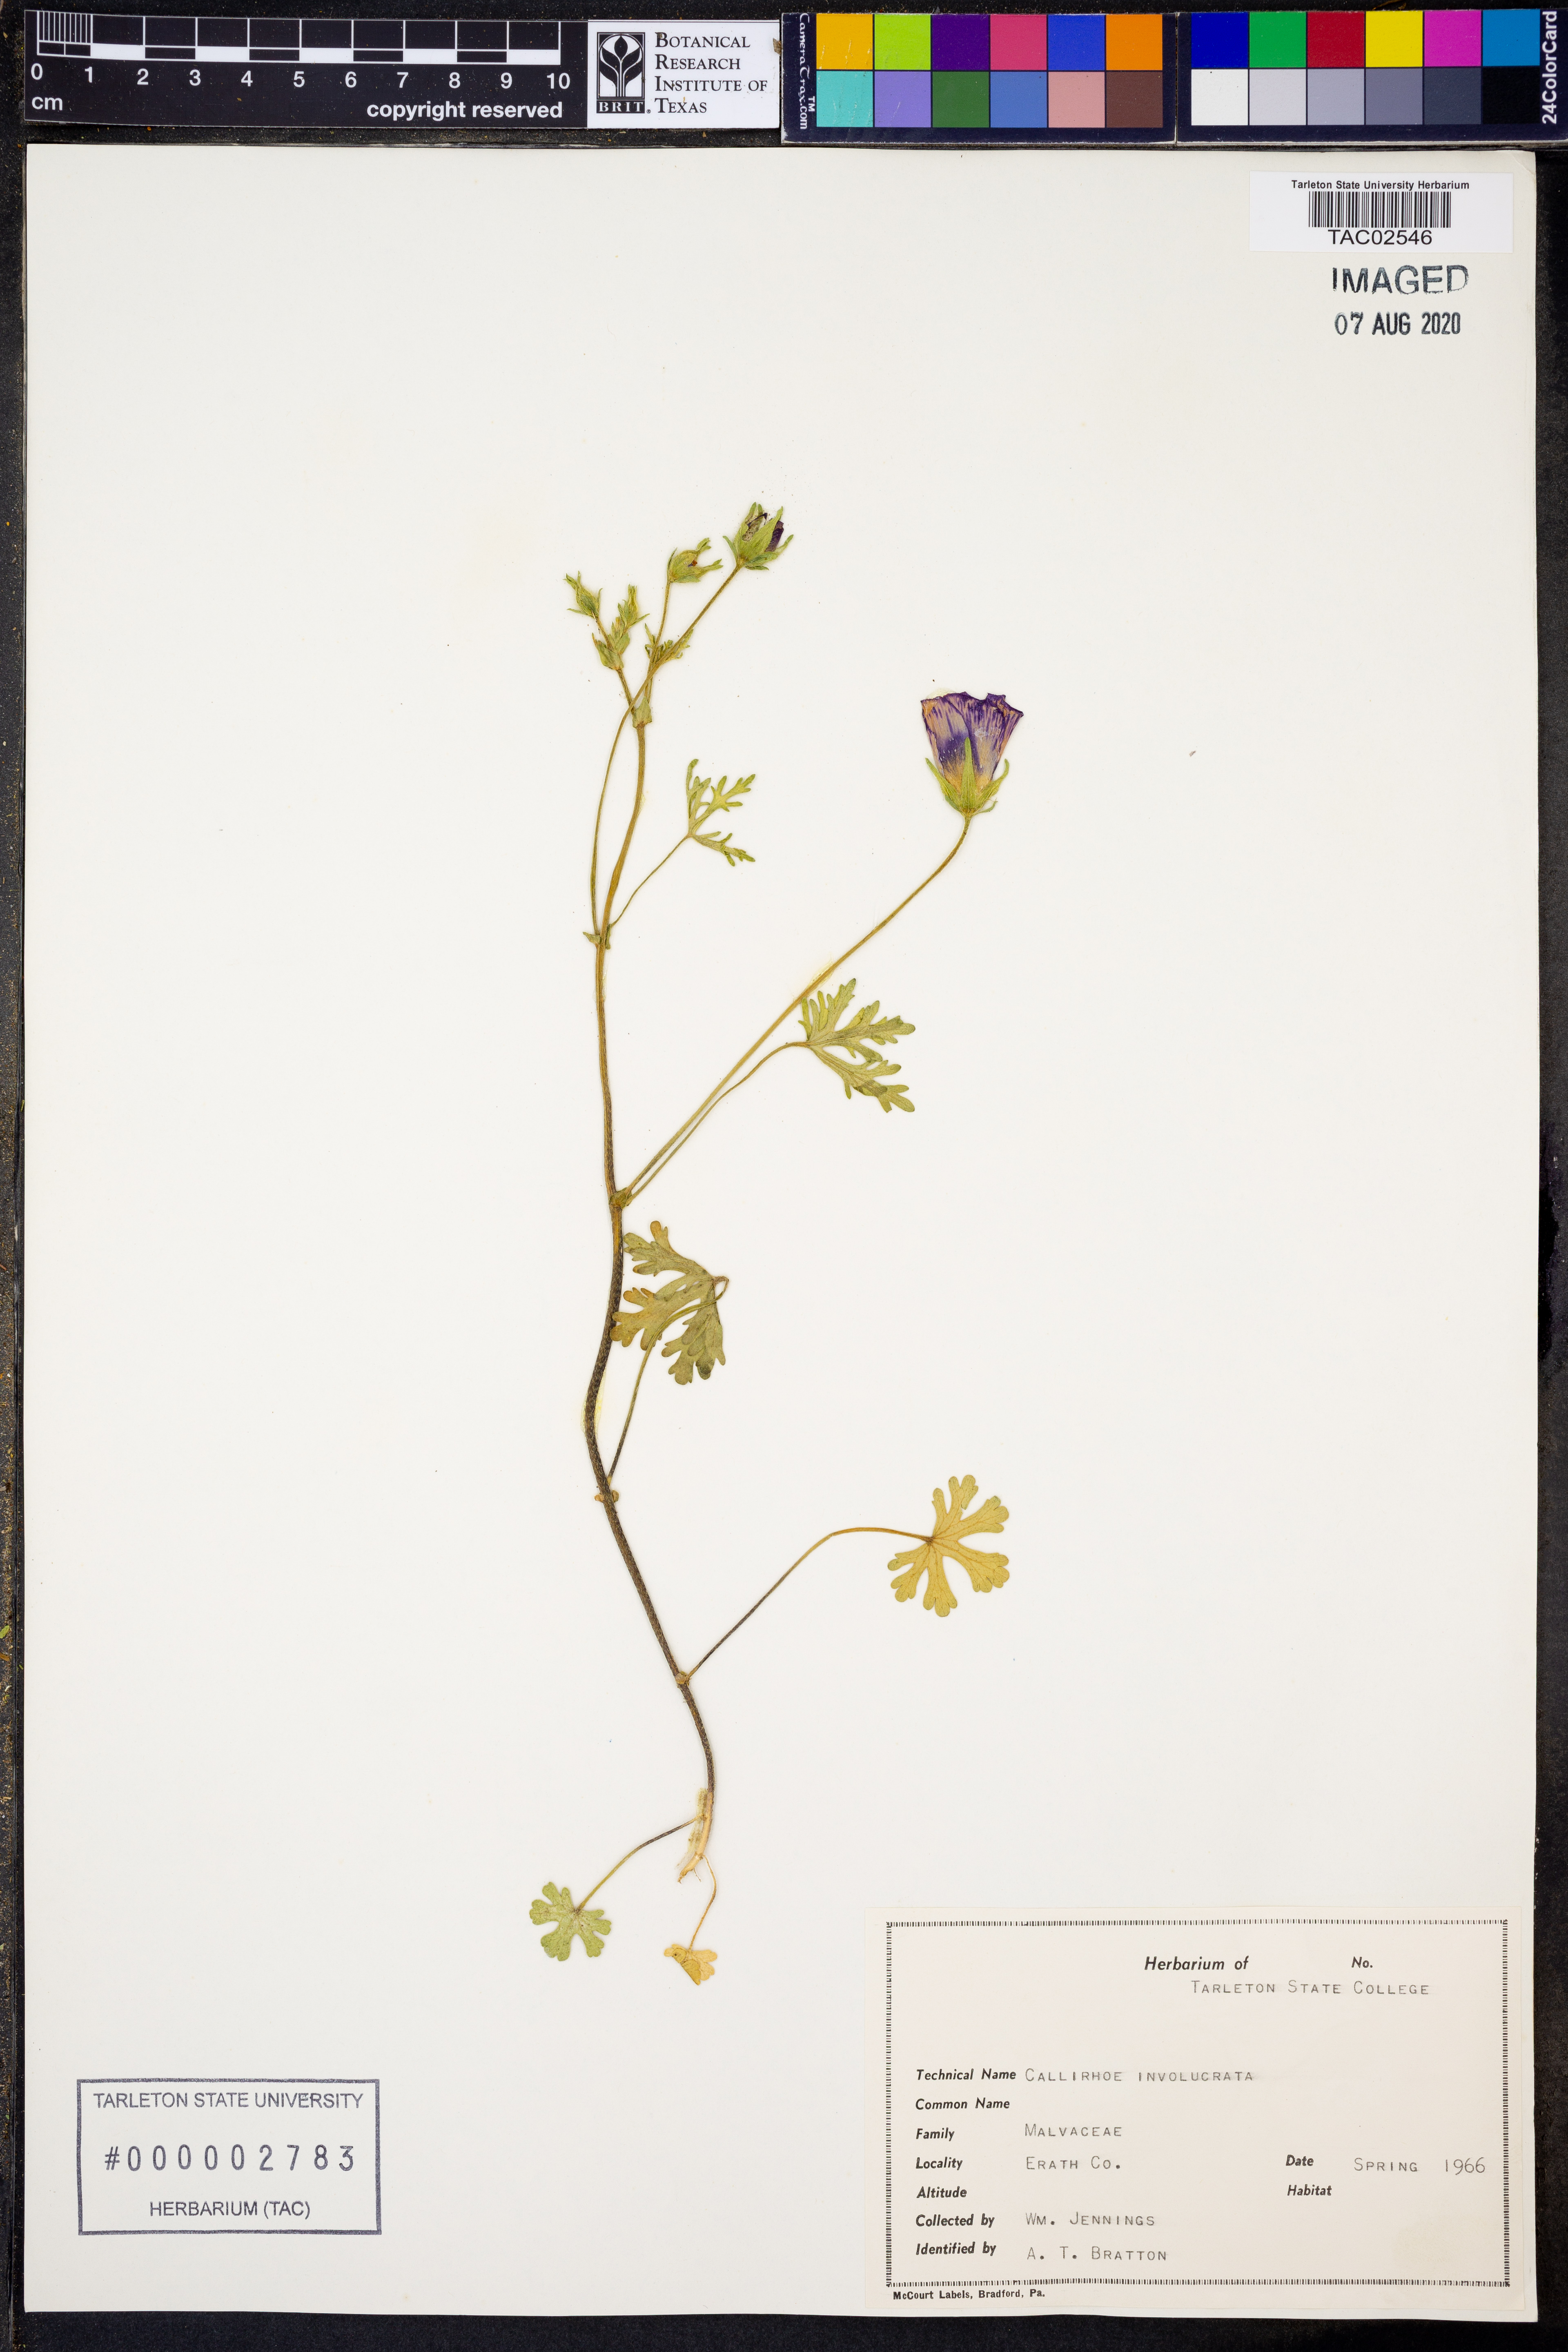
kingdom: Plantae
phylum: Tracheophyta
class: Magnoliopsida
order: Malvales
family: Malvaceae
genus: Callirhoe
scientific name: Callirhoe involucrata
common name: Purple poppy-mallow
